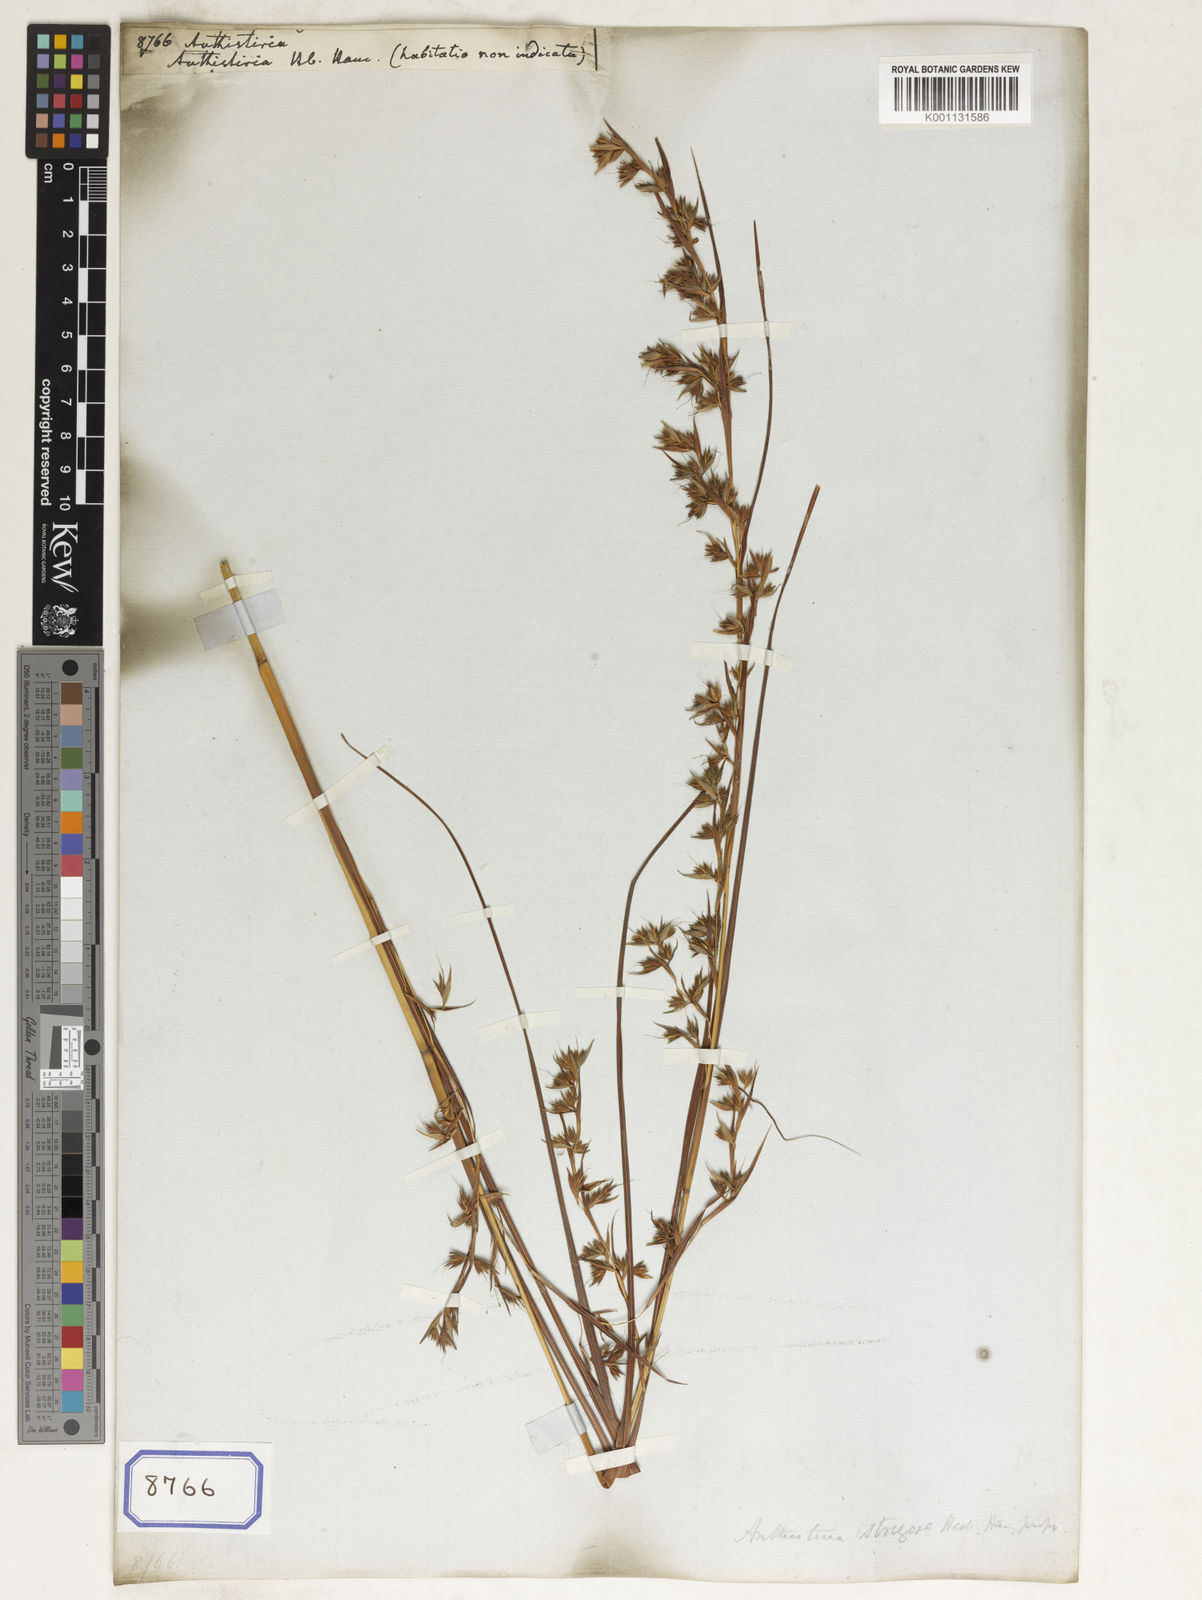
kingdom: Plantae
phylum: Tracheophyta
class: Liliopsida
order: Poales
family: Poaceae
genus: Themeda
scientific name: Themeda
